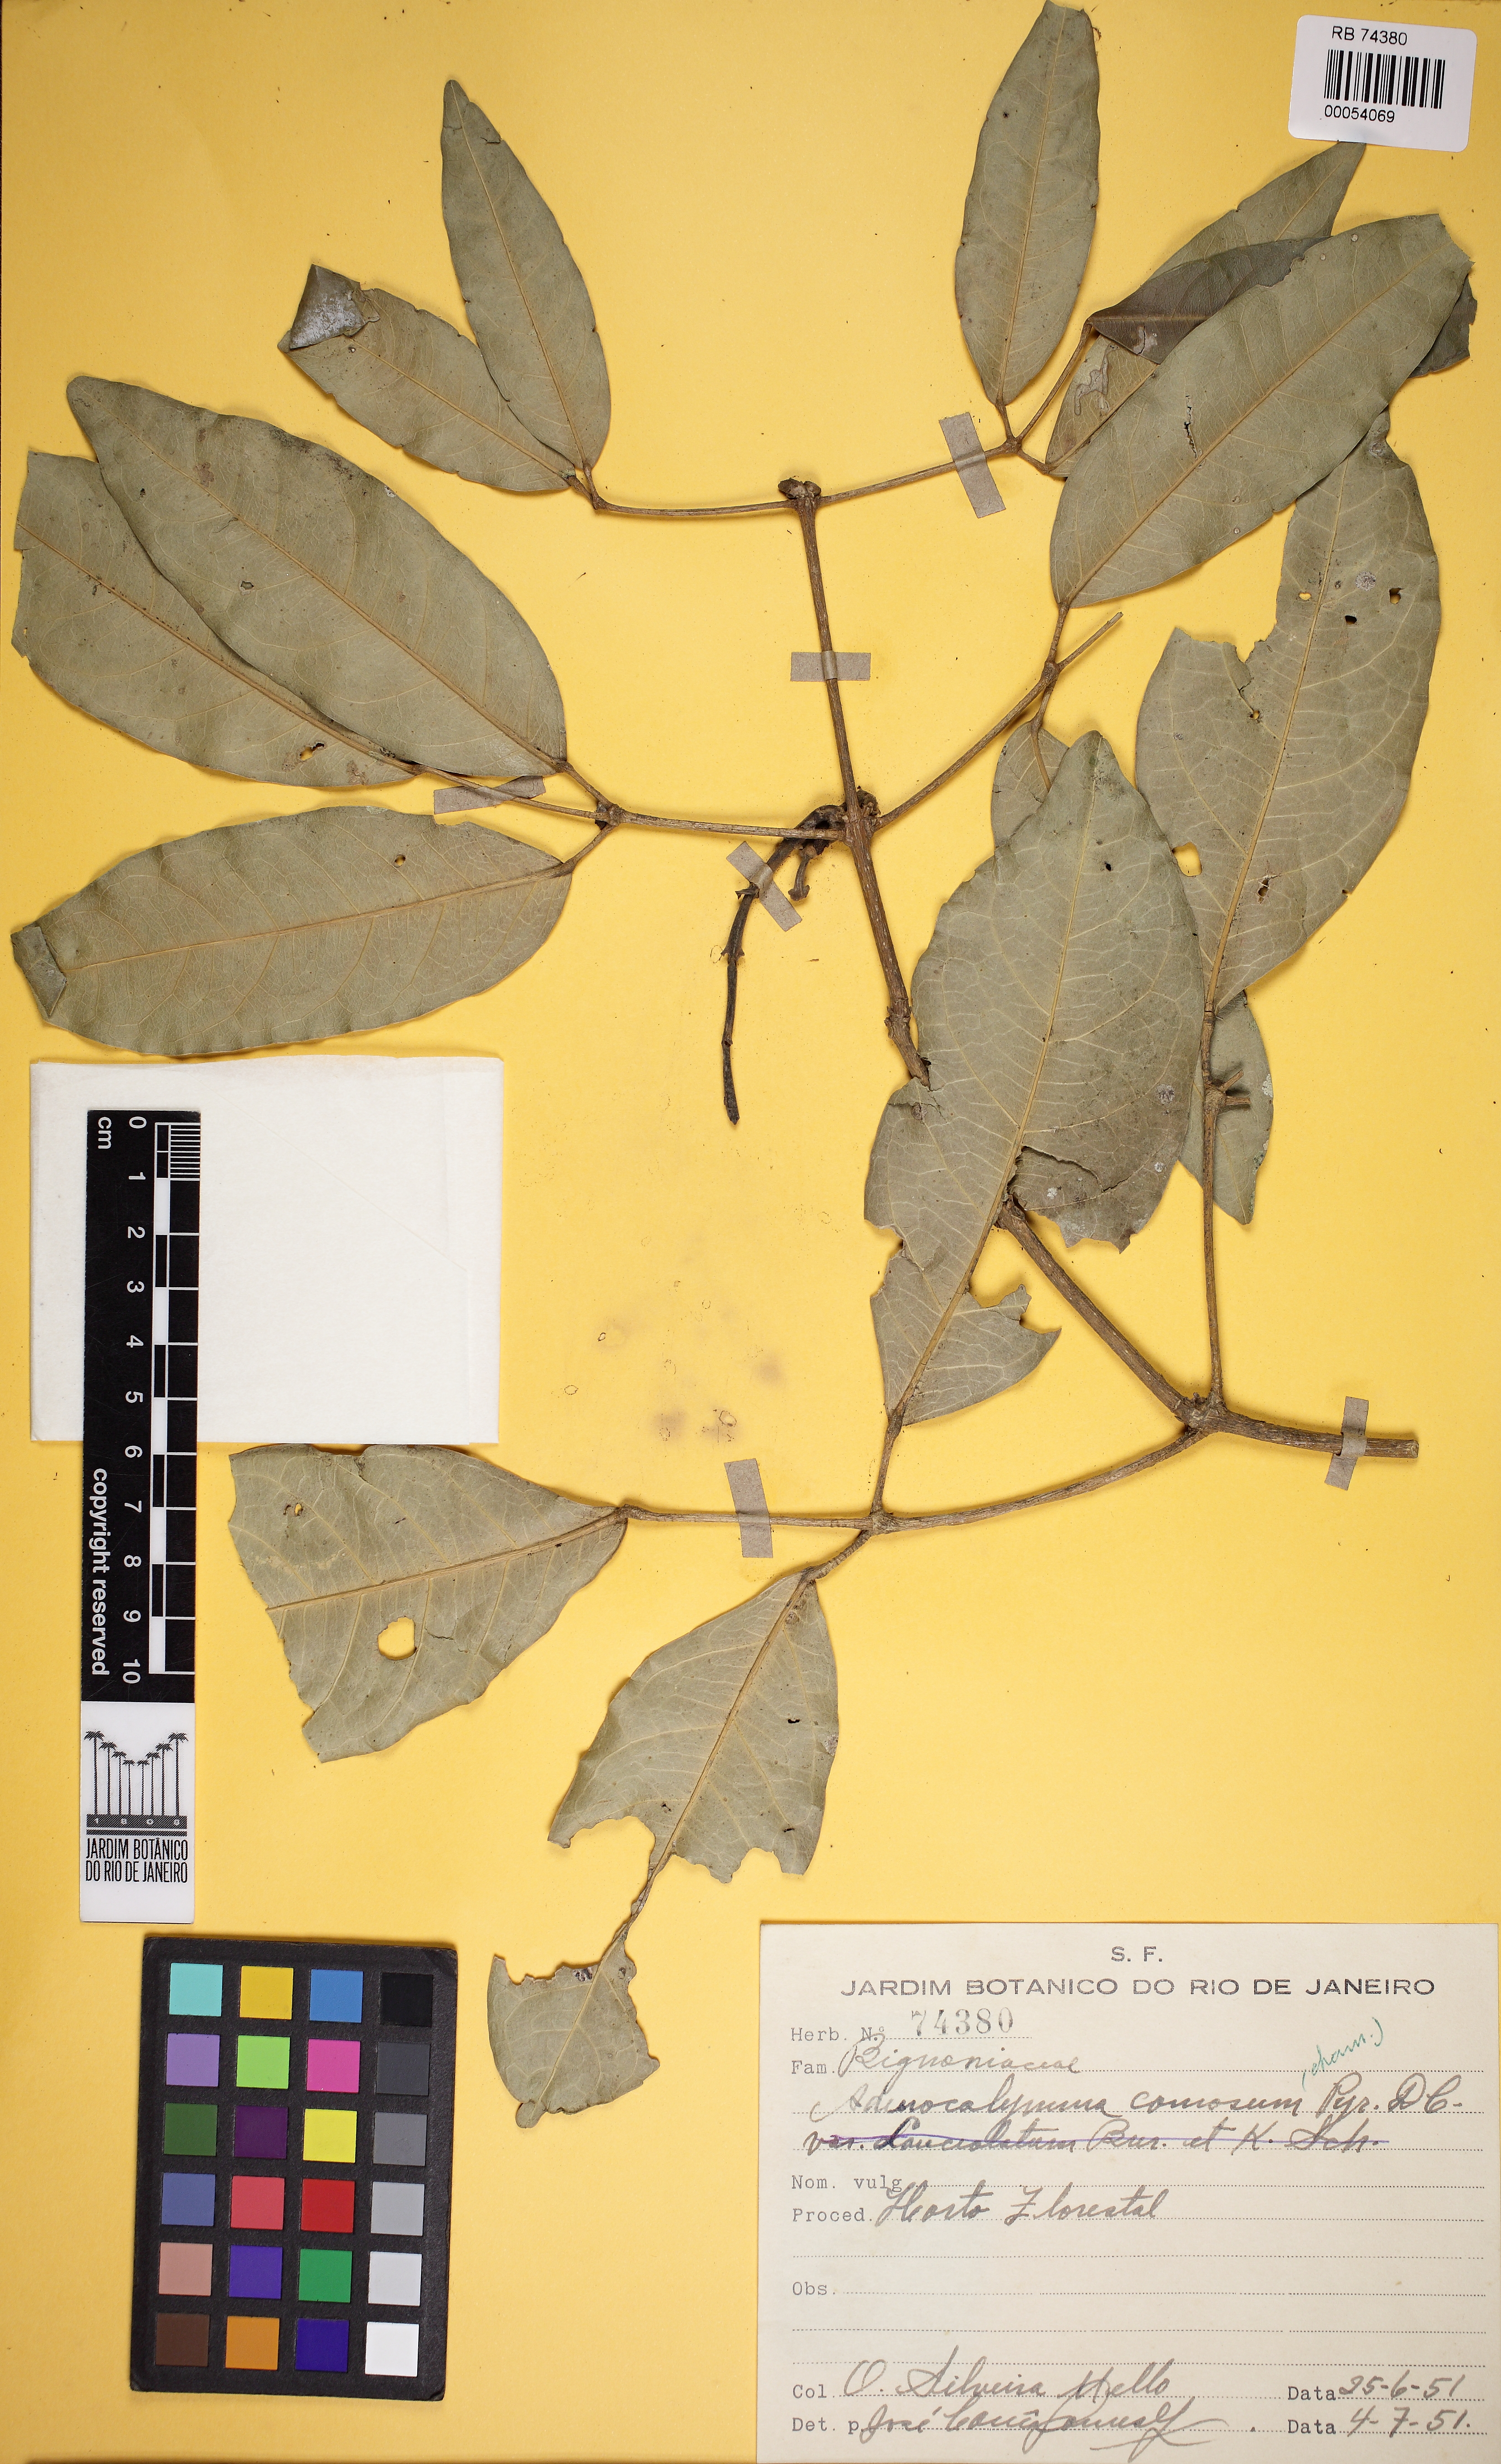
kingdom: Plantae
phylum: Tracheophyta
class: Magnoliopsida
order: Lamiales
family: Bignoniaceae
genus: Adenocalymma
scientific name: Adenocalymma acutissimum
